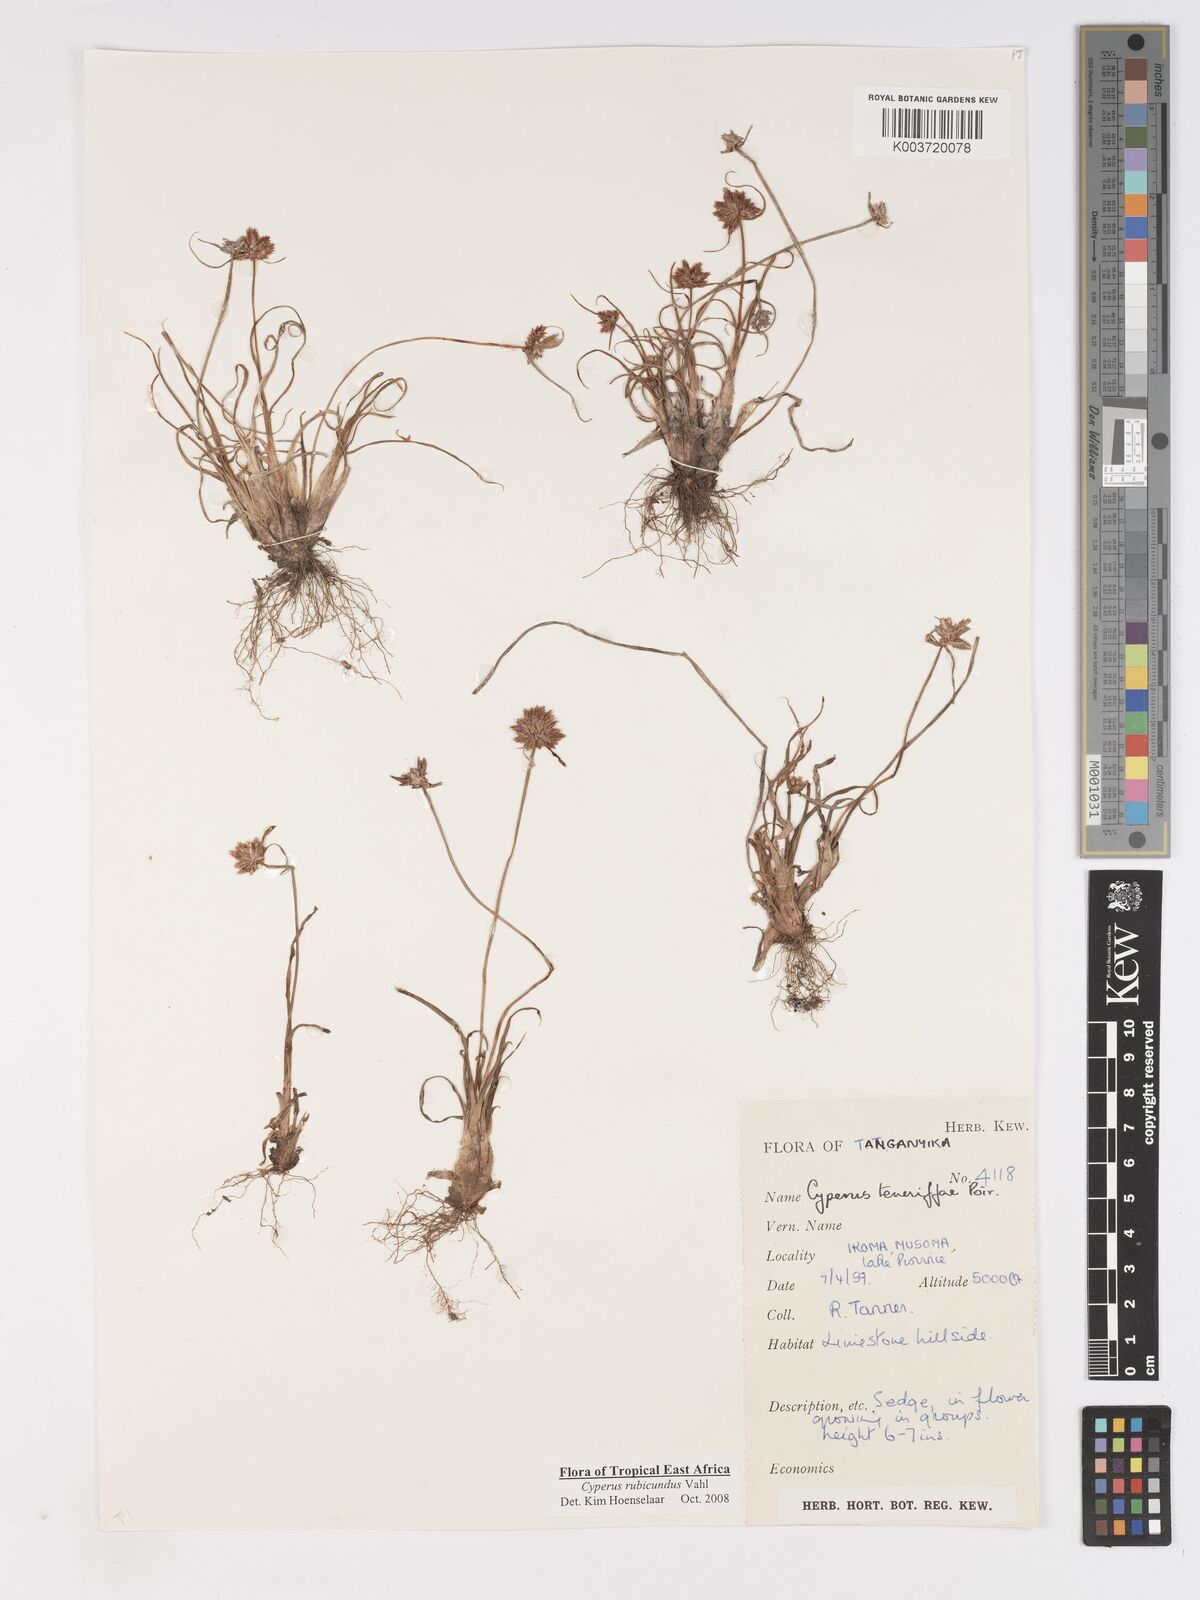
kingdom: Plantae
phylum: Tracheophyta
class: Liliopsida
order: Poales
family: Cyperaceae
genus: Cyperus
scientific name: Cyperus rubicundus
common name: Coco-grass
